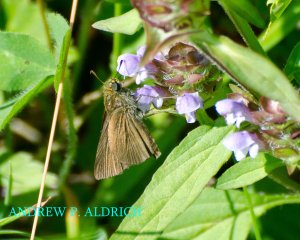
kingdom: Animalia
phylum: Arthropoda
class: Insecta
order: Lepidoptera
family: Hesperiidae
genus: Euphyes
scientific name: Euphyes vestris
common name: Dun Skipper
